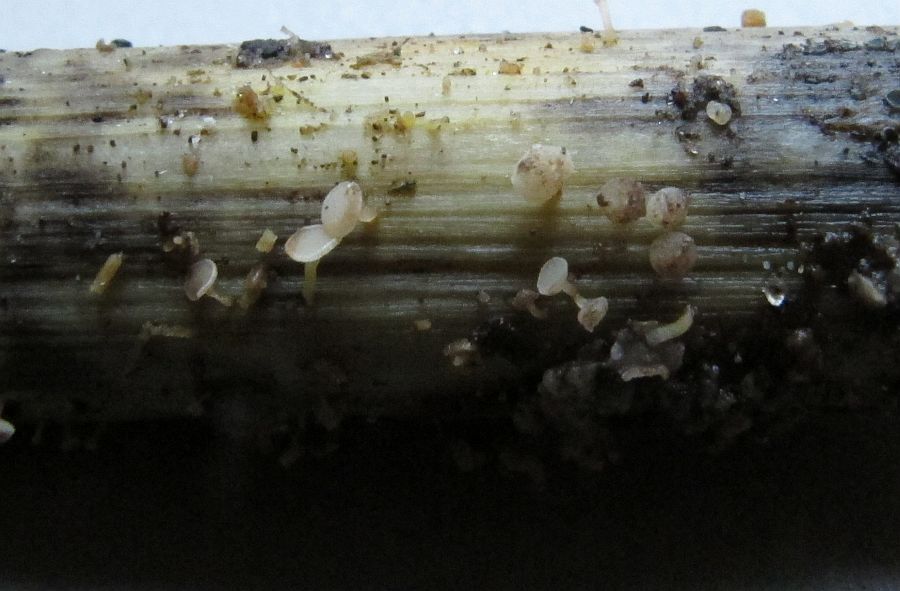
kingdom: Fungi
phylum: Ascomycota
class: Leotiomycetes
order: Helotiales
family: Helotiaceae
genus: Cyathicula
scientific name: Cyathicula cyathoidea
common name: pokal-stilkskive
